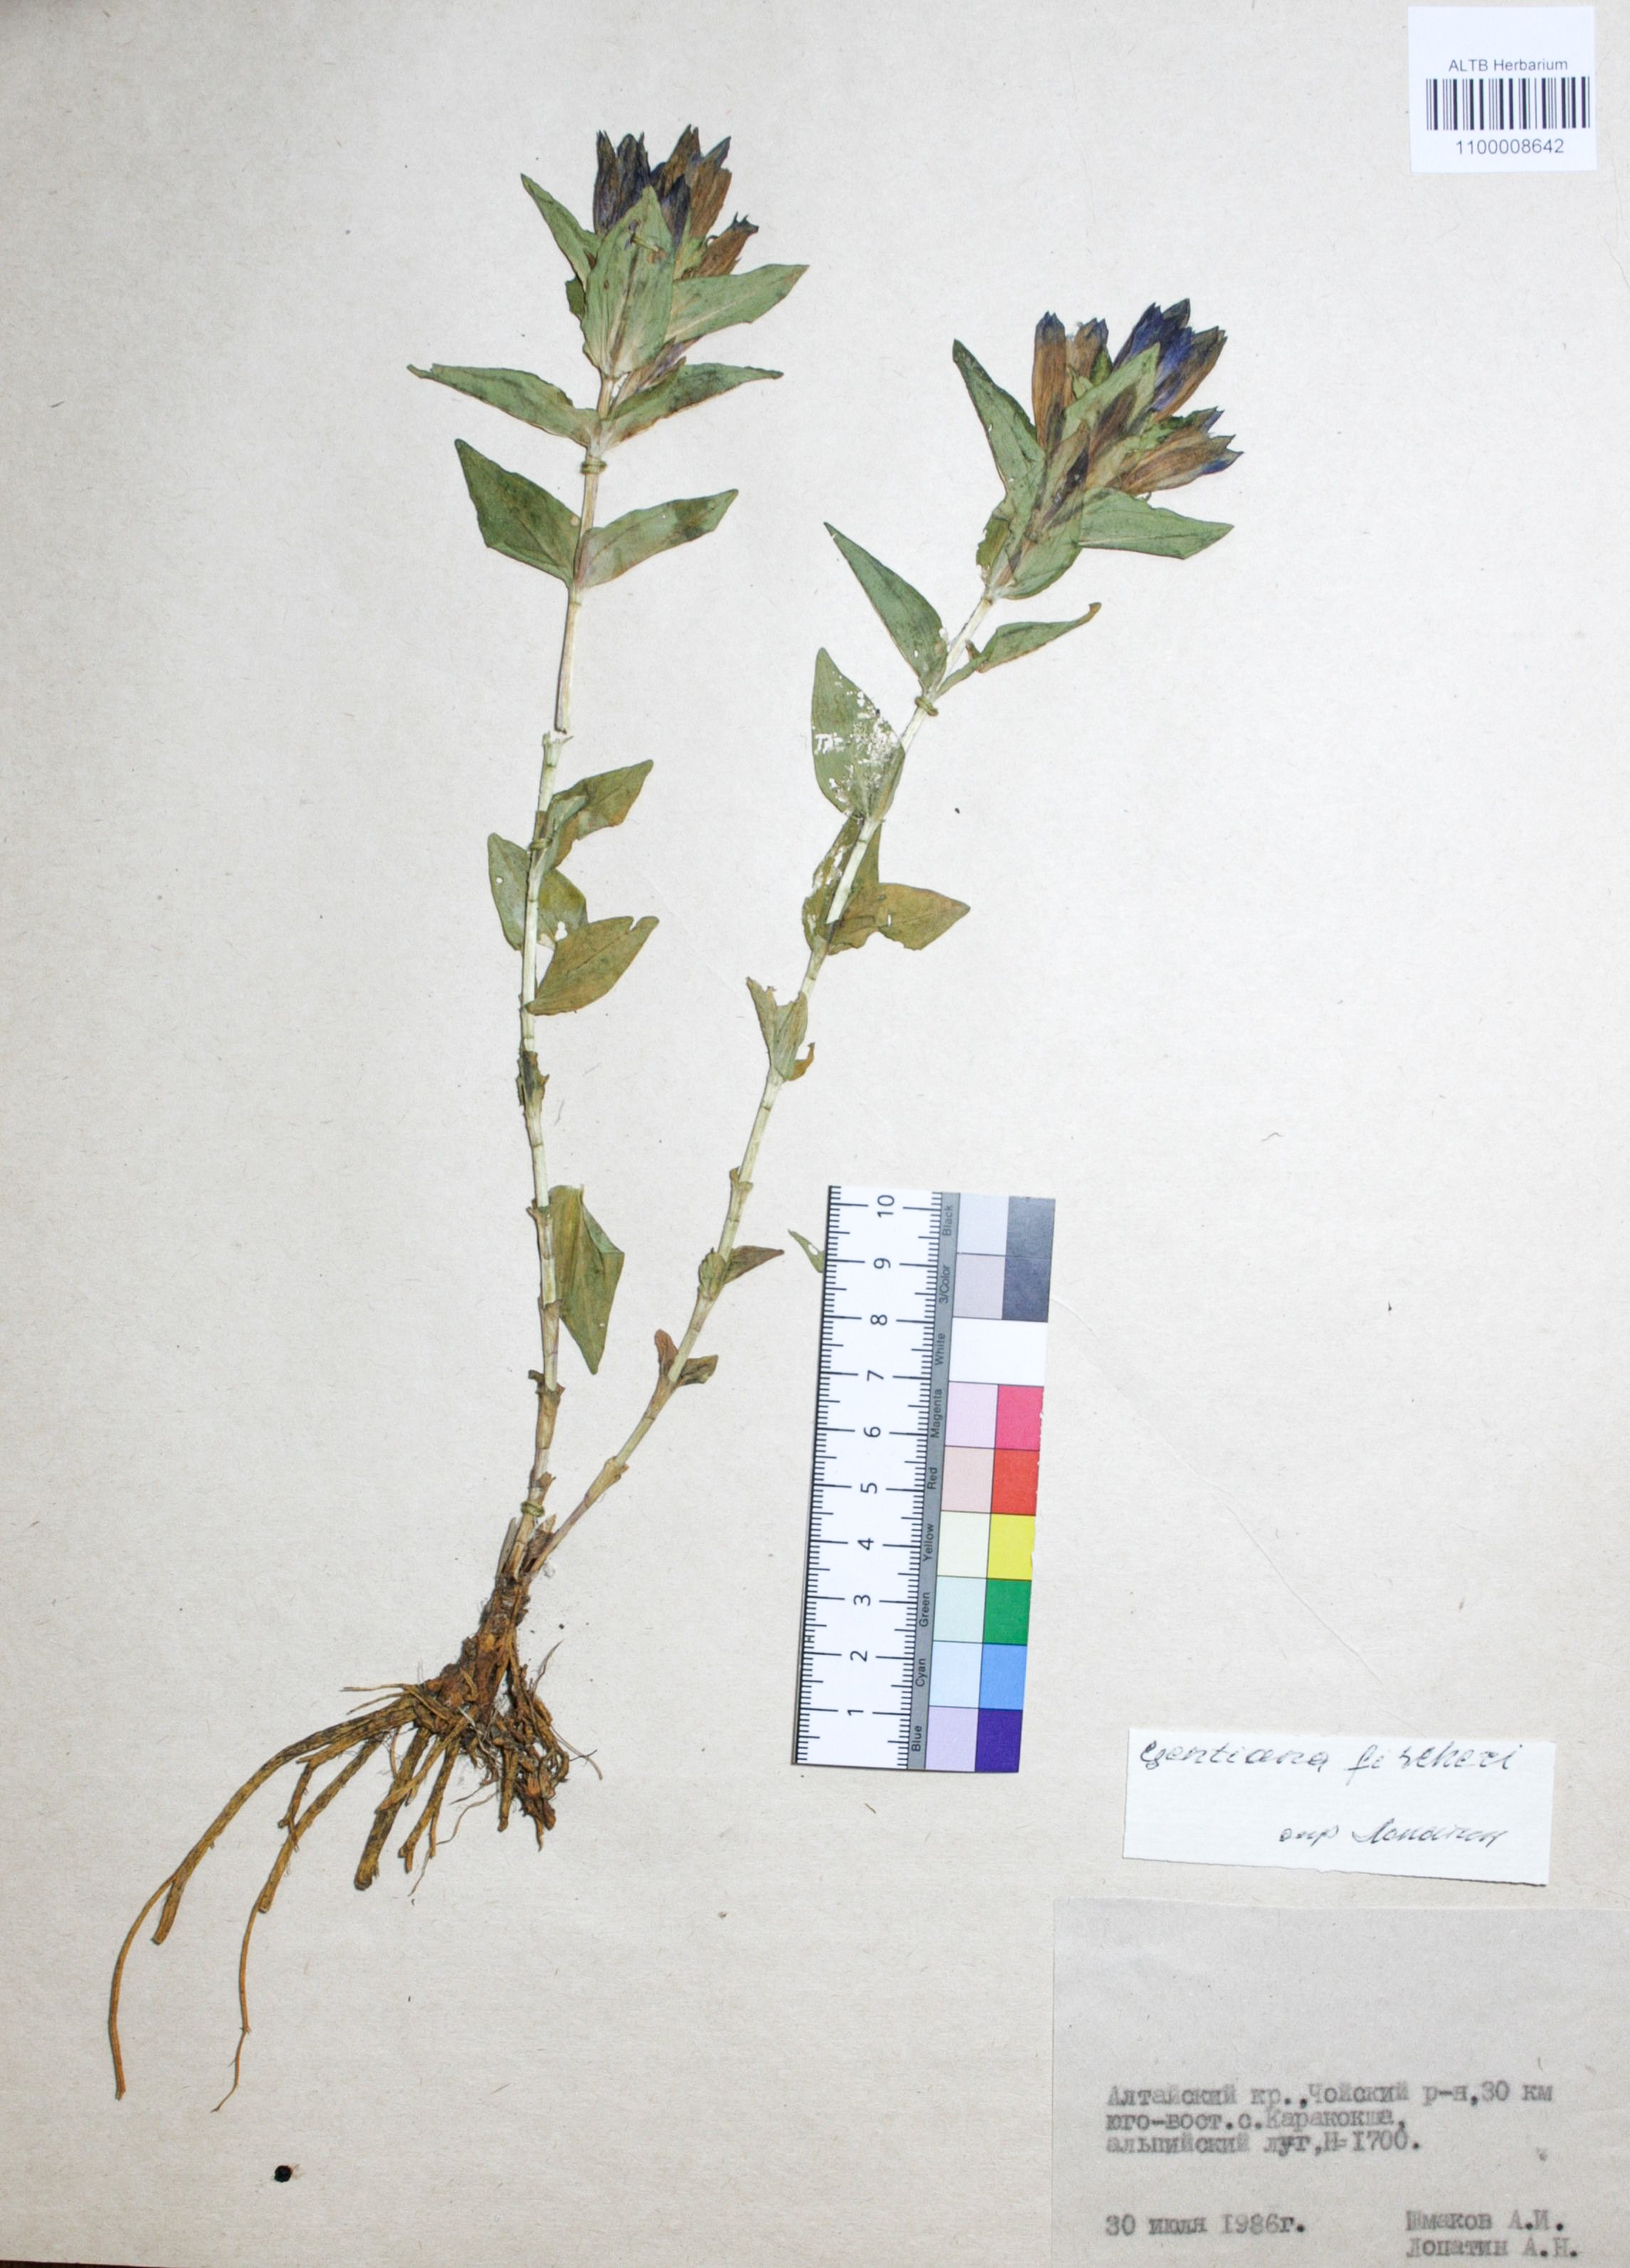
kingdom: Plantae
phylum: Tracheophyta
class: Magnoliopsida
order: Gentianales
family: Gentianaceae
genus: Gentiana
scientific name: Gentiana dschungarica
